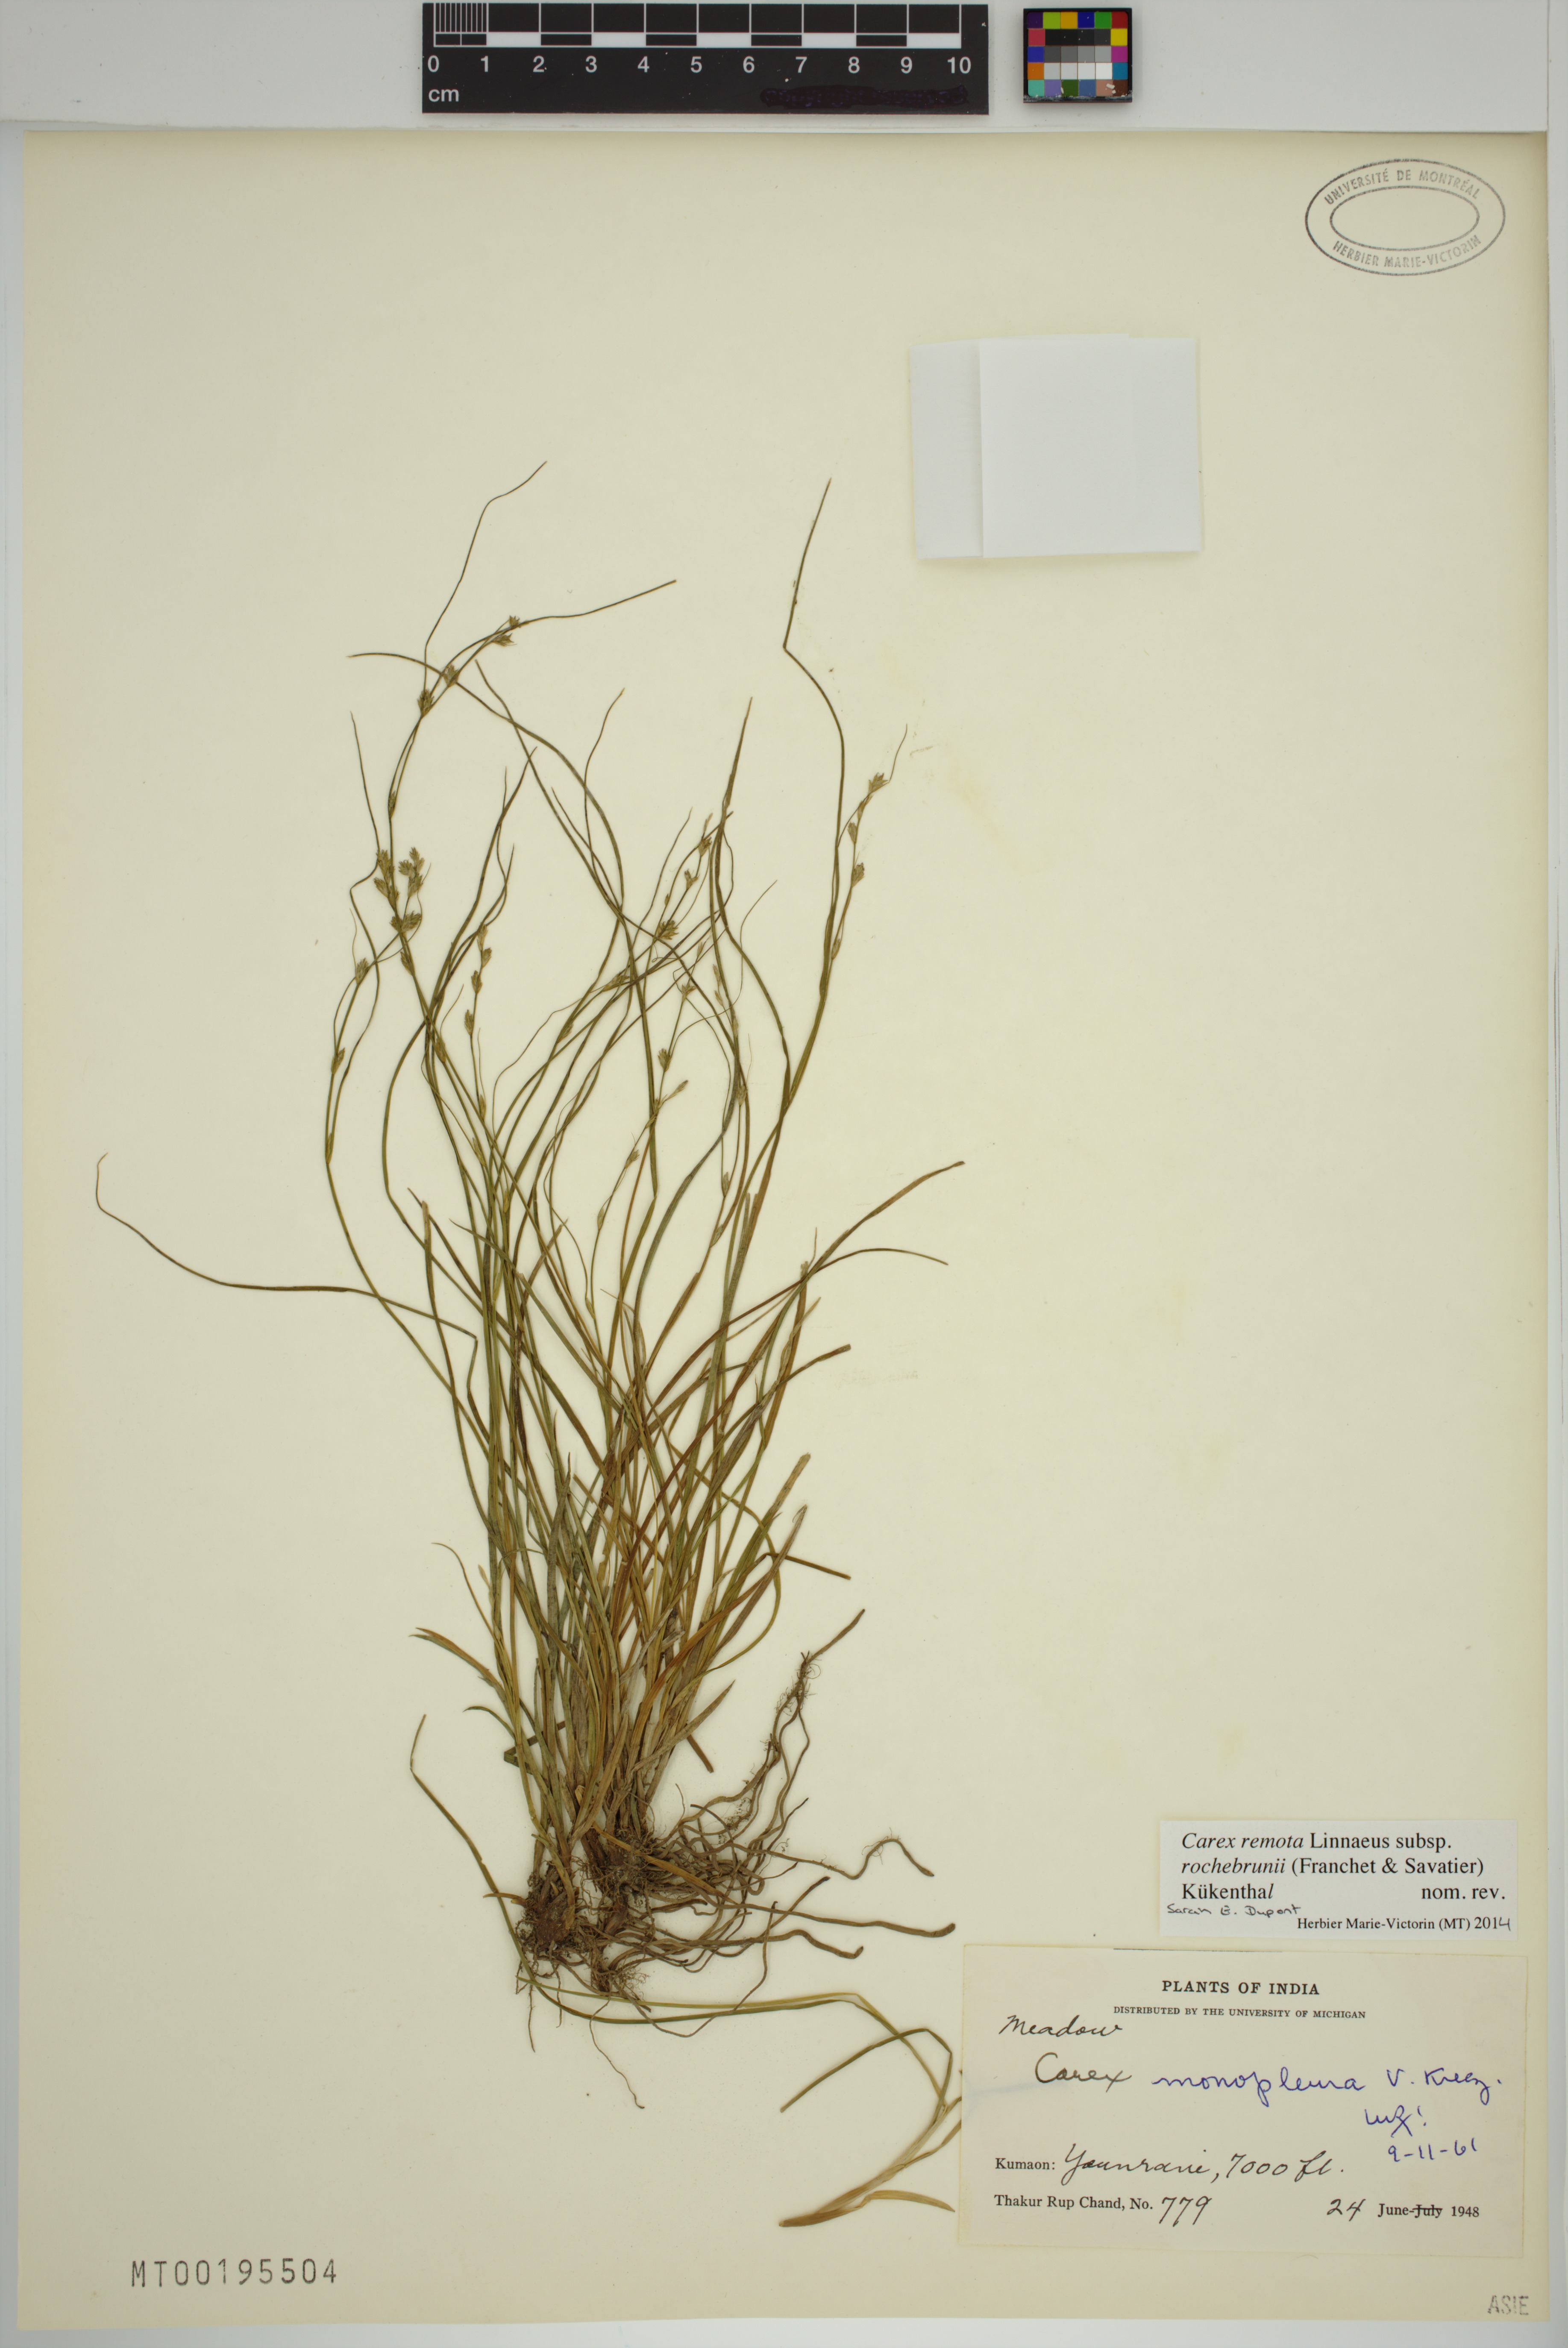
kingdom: Plantae
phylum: Tracheophyta
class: Liliopsida
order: Poales
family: Cyperaceae
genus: Carex
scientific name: Carex rochebrunei
